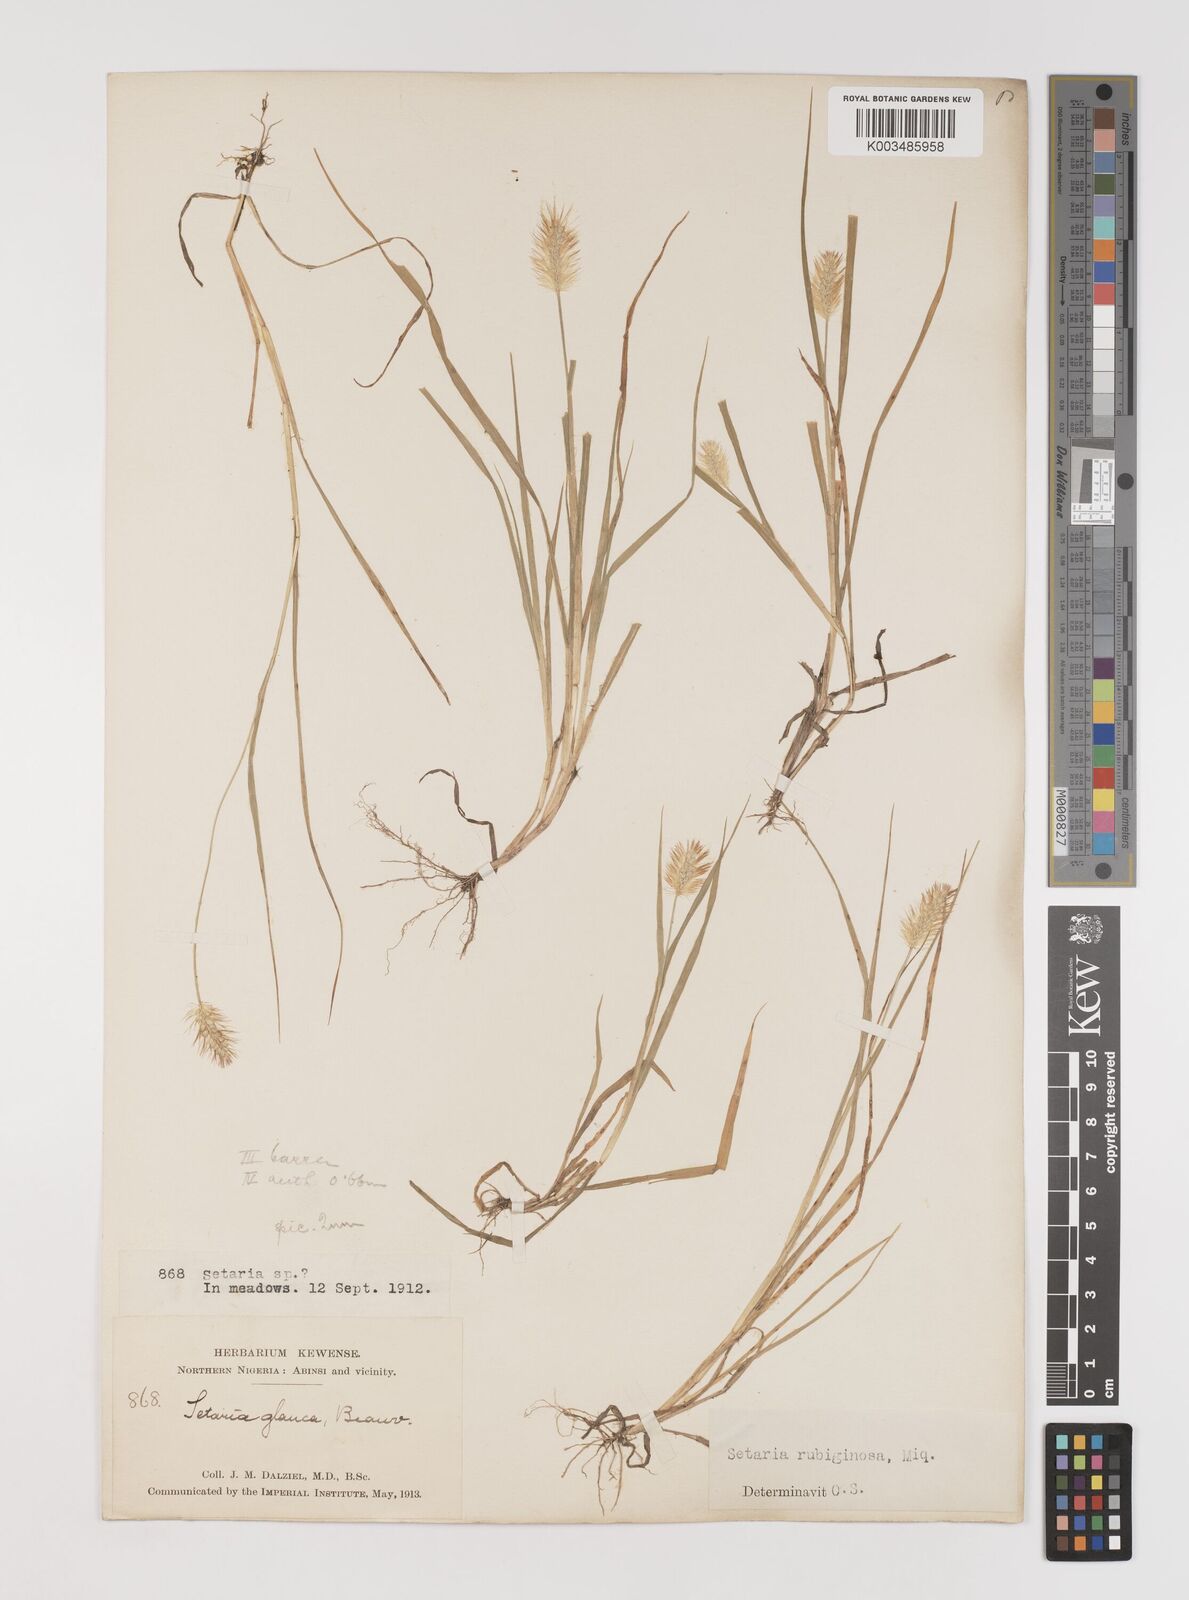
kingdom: Plantae
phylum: Tracheophyta
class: Liliopsida
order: Poales
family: Poaceae
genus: Setaria
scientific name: Setaria pumila
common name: Yellow bristle-grass
